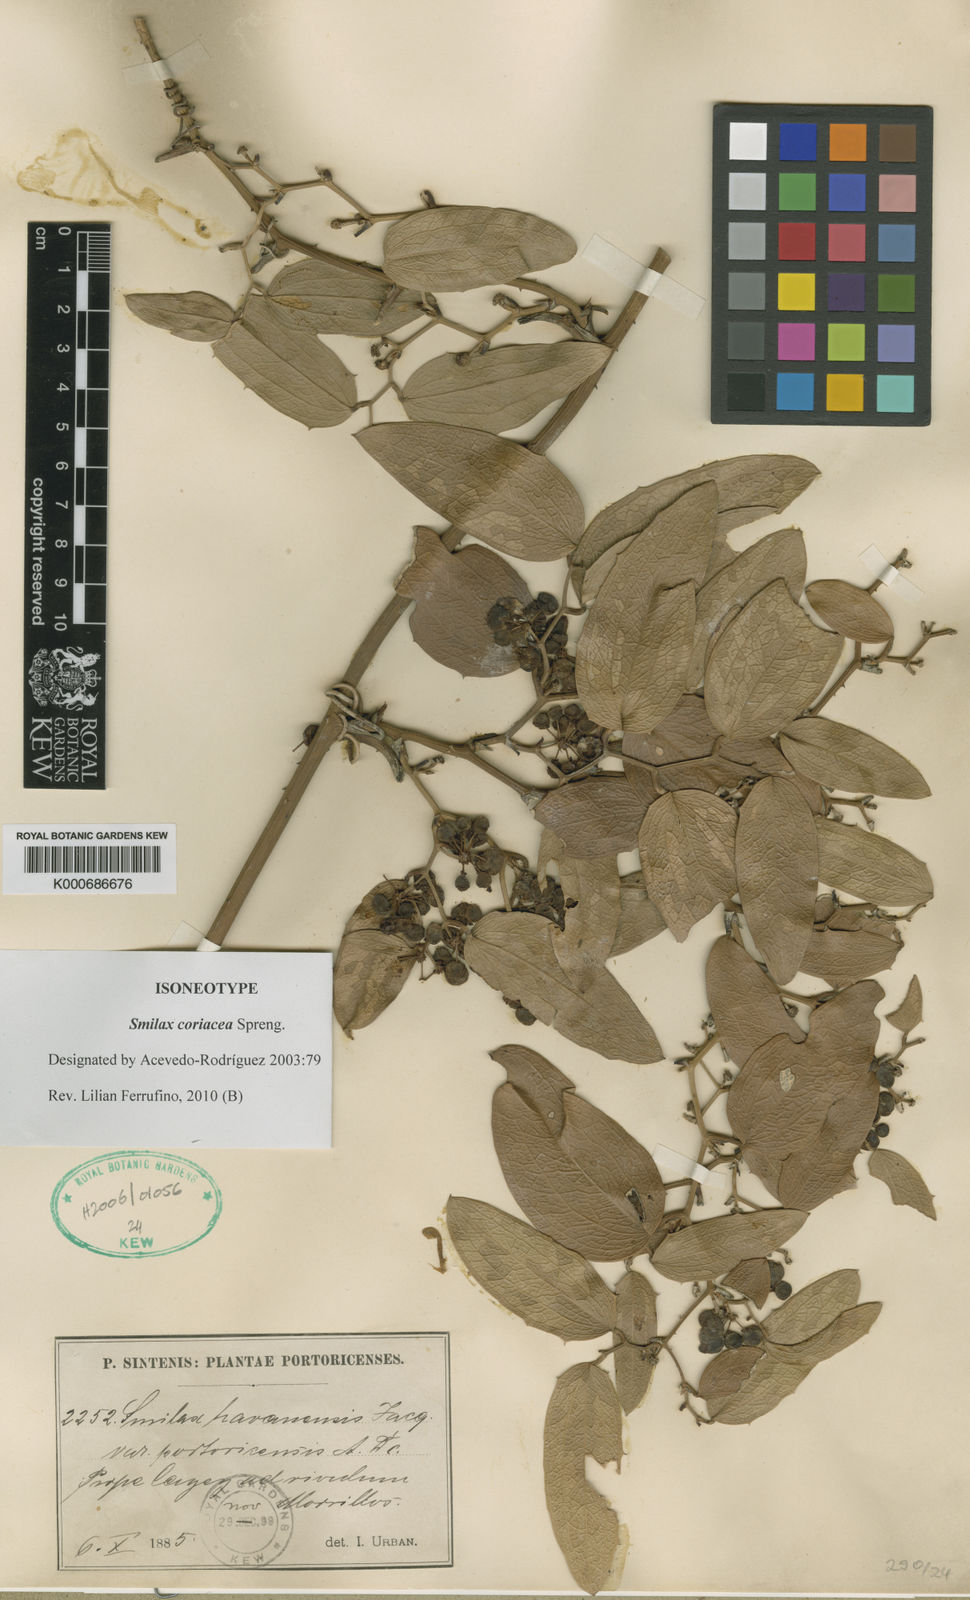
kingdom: Plantae
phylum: Tracheophyta
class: Liliopsida
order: Liliales
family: Smilacaceae
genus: Smilax
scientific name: Smilax coriacea
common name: White withe
